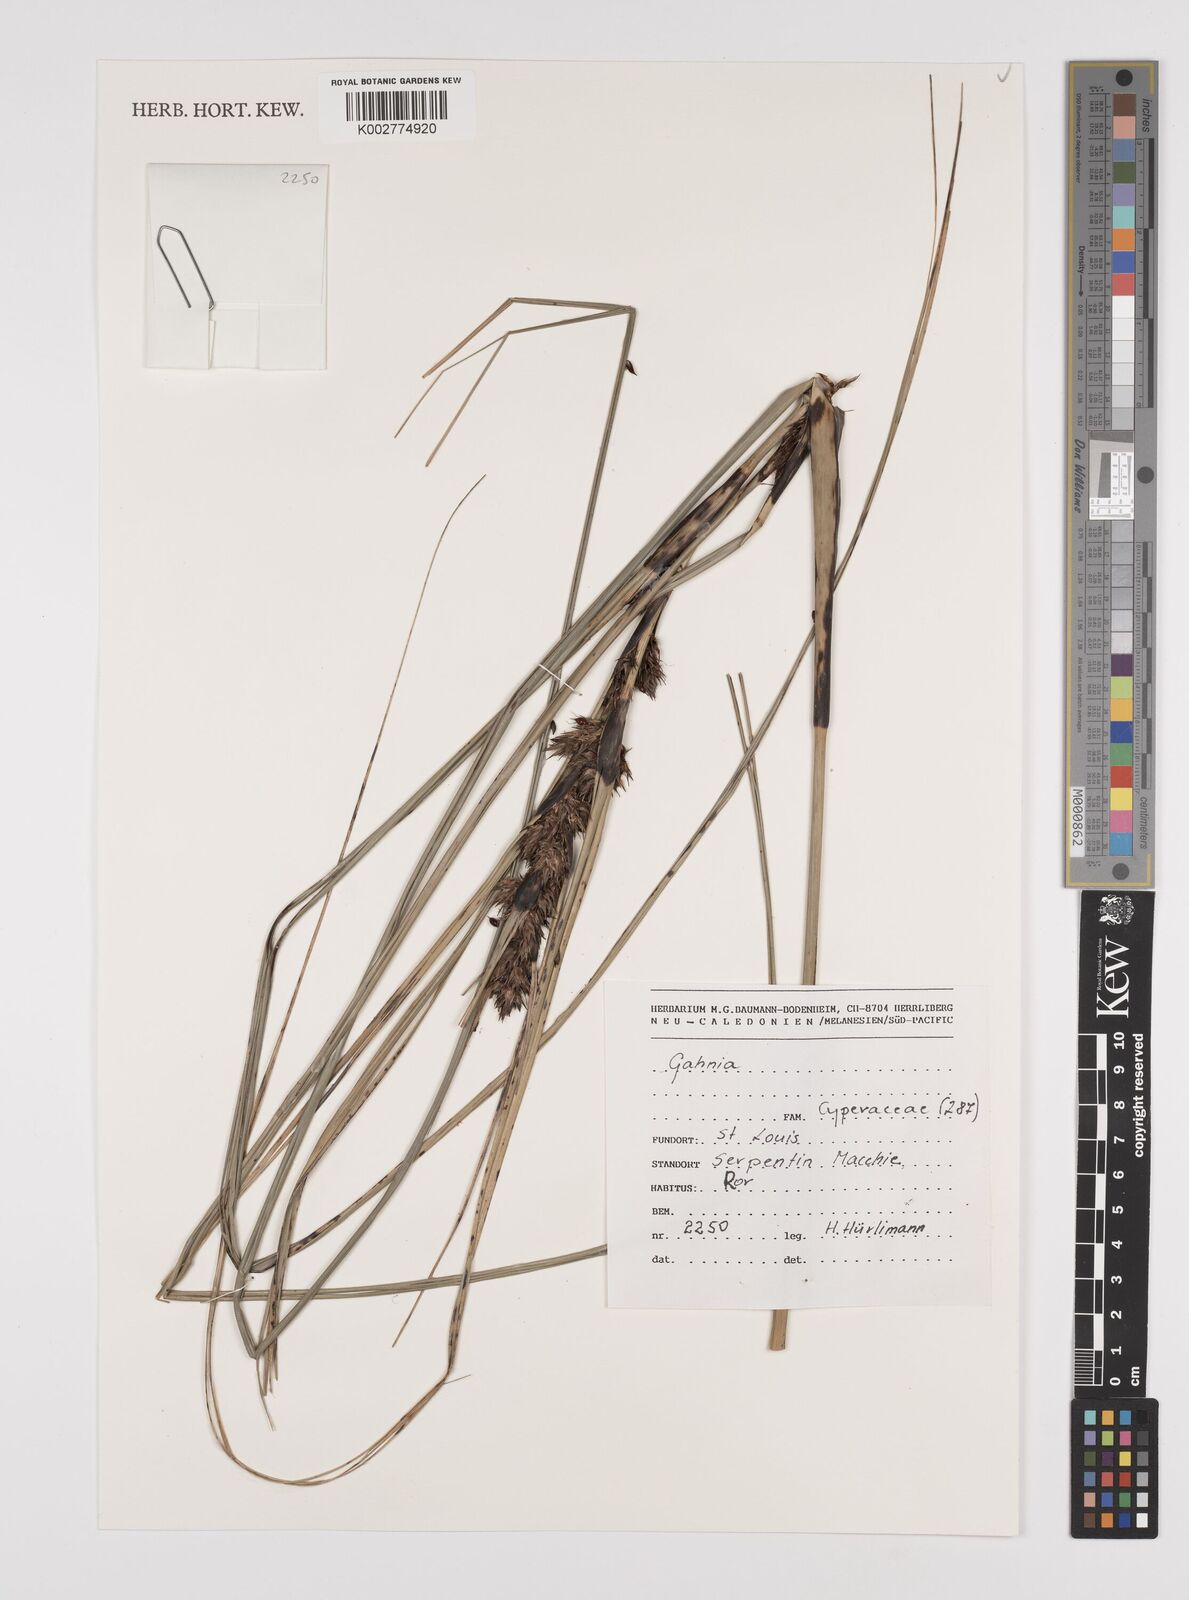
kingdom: Plantae
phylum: Tracheophyta
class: Liliopsida
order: Poales
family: Cyperaceae
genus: Gahnia
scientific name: Gahnia
